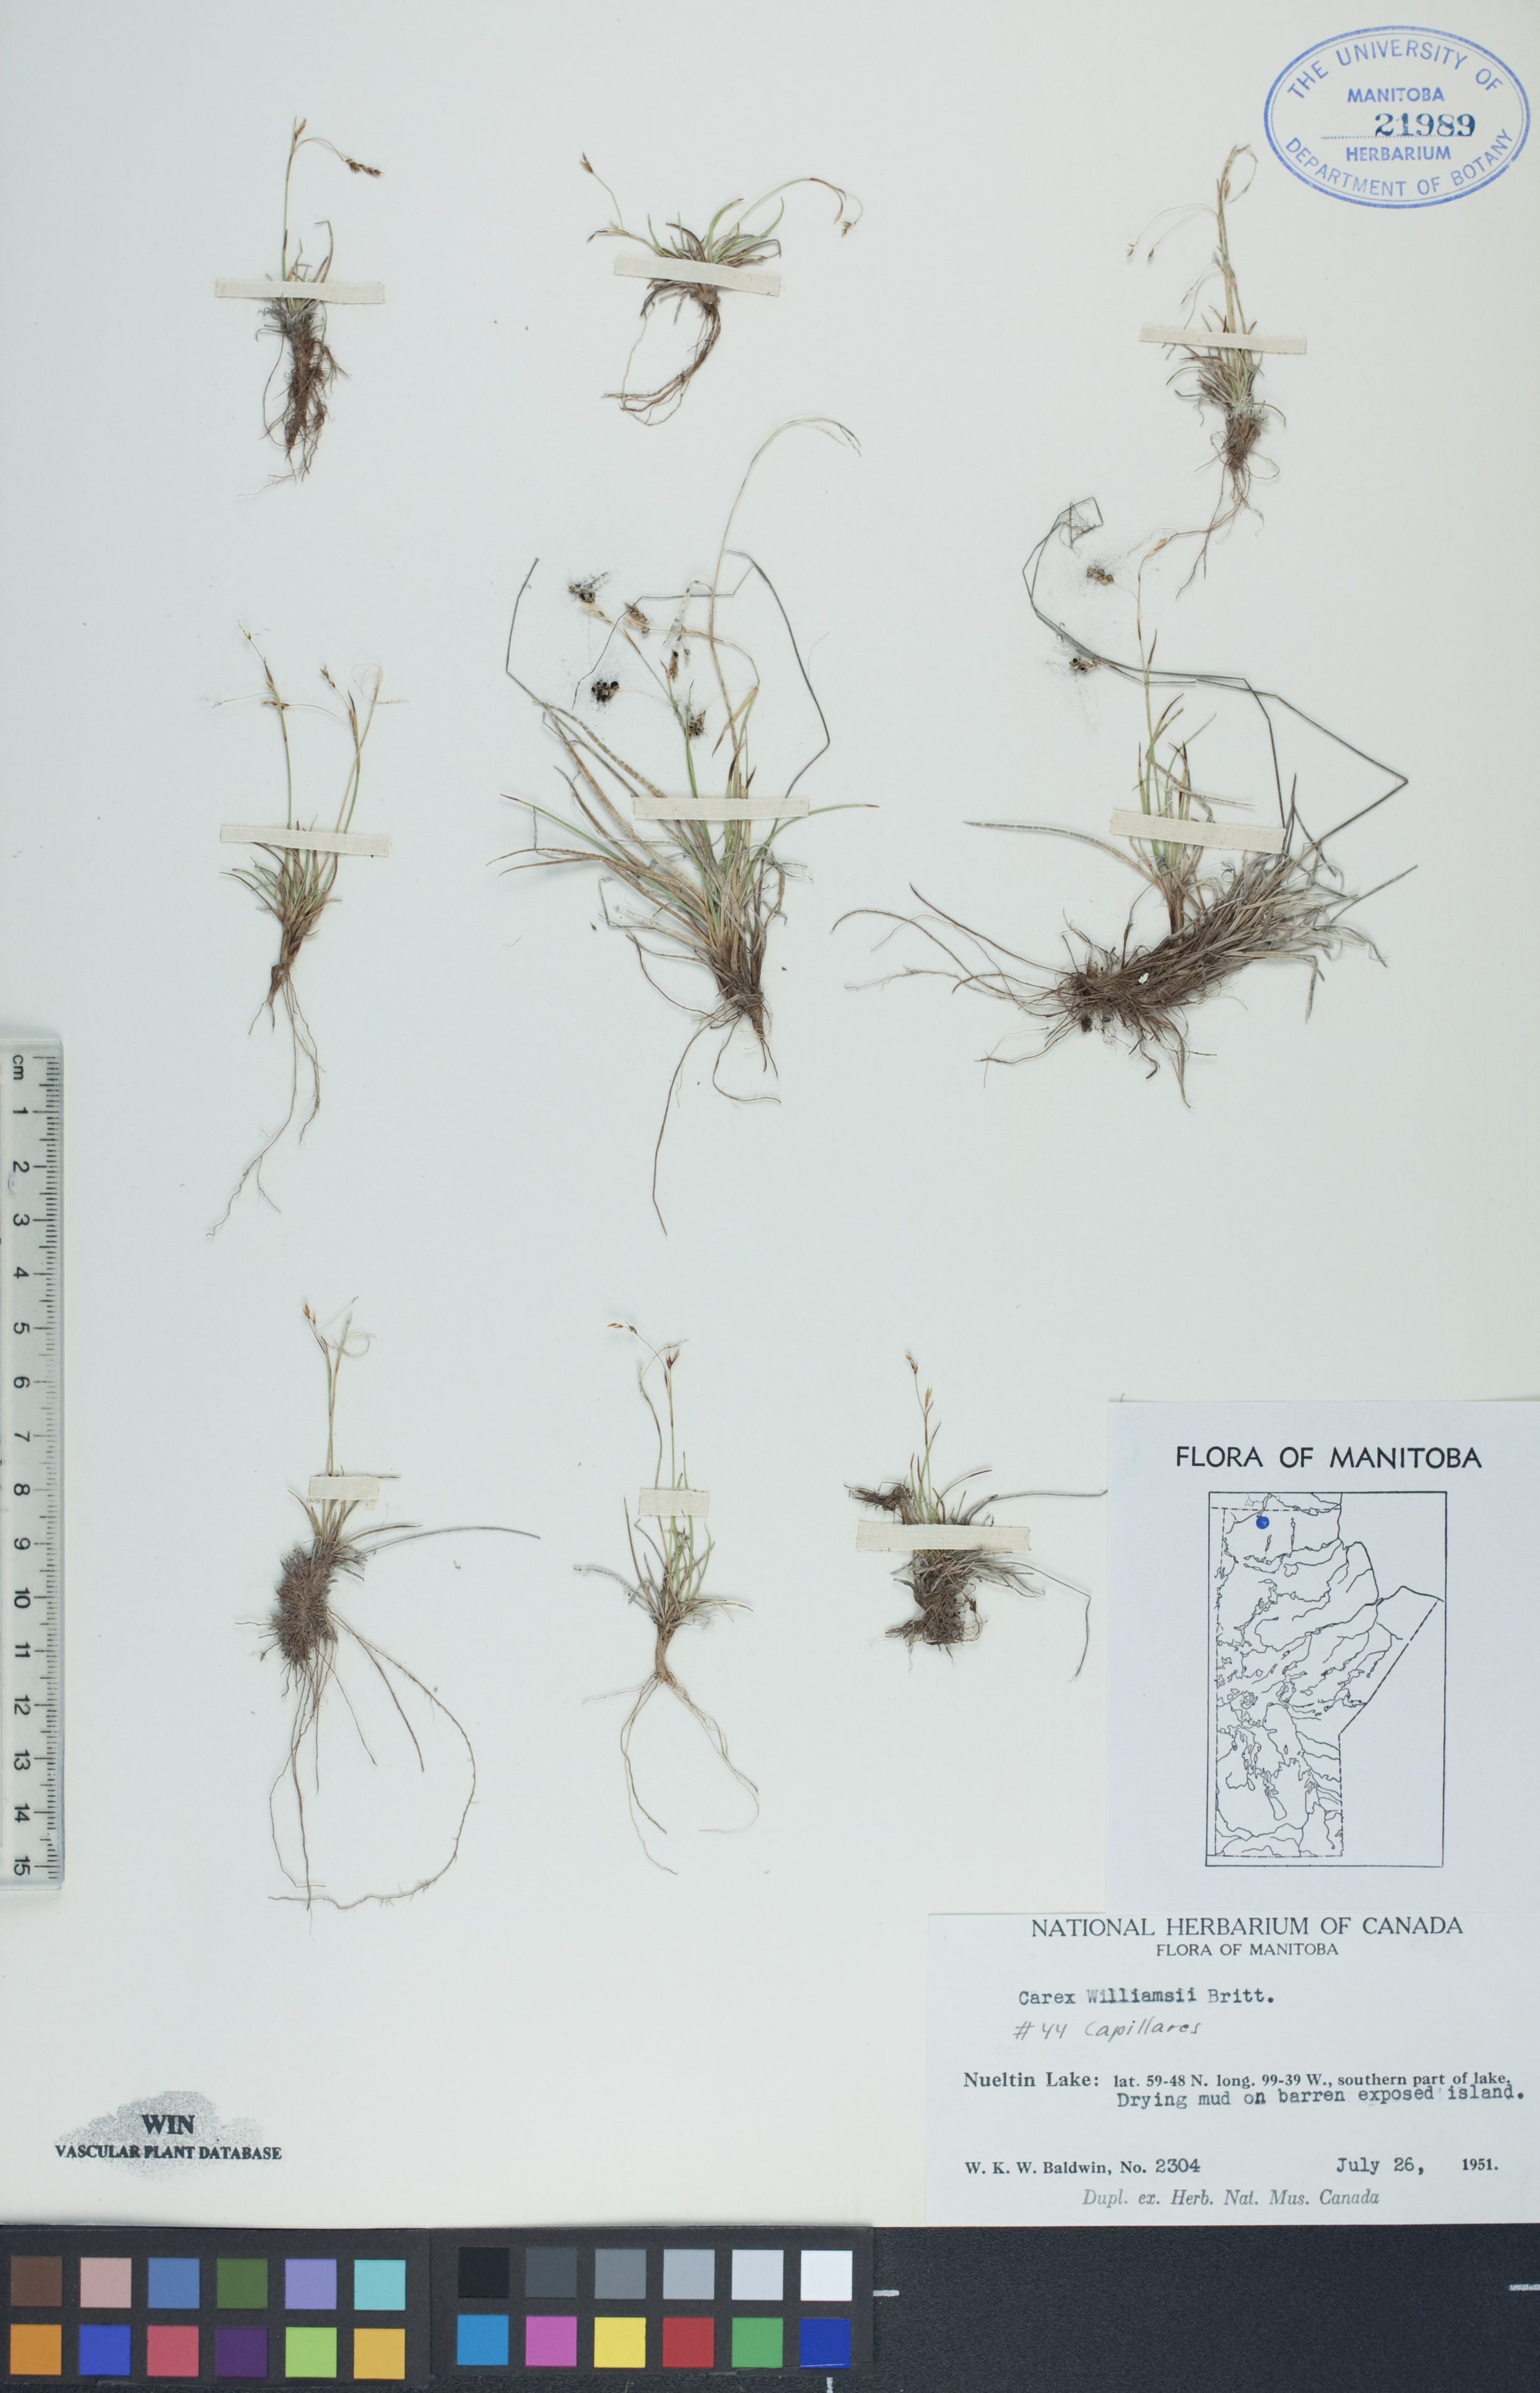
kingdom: Plantae
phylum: Tracheophyta
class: Liliopsida
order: Poales
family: Cyperaceae
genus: Carex
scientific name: Carex williamsii
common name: Williams' sedge
